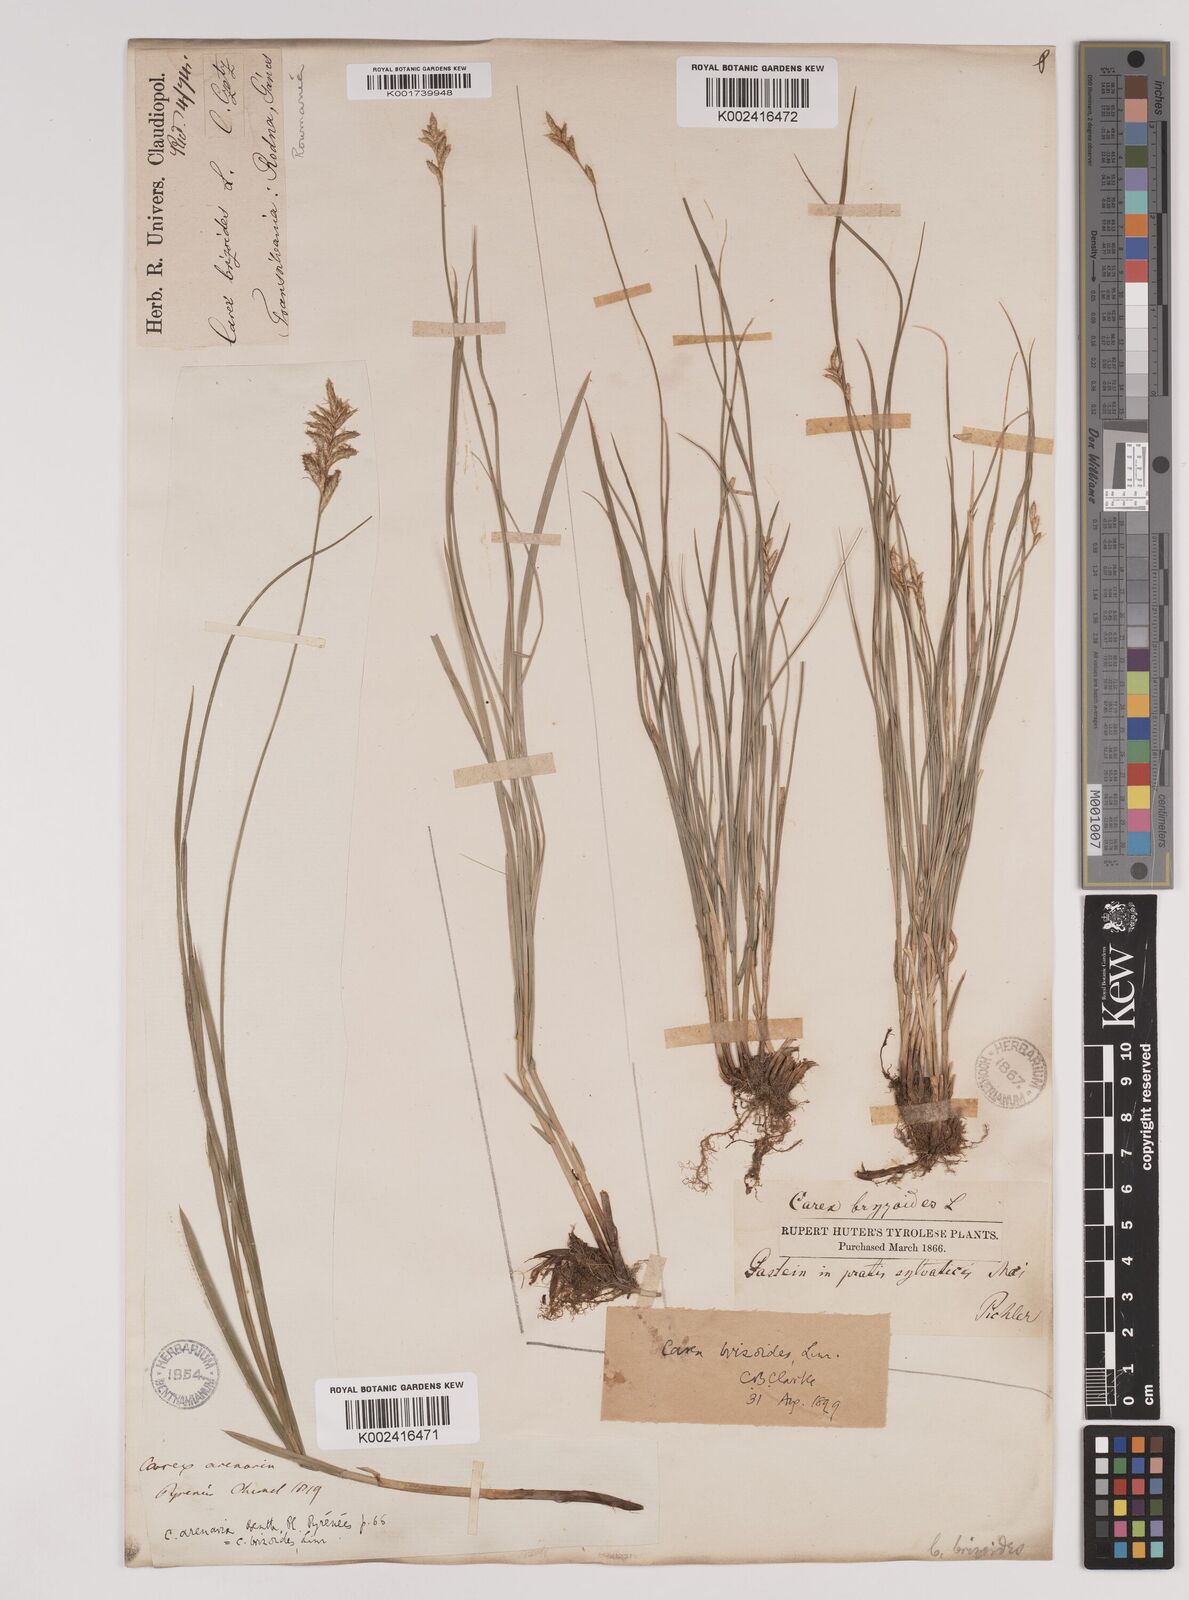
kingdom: Plantae
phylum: Tracheophyta
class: Liliopsida
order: Poales
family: Cyperaceae
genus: Carex
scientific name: Carex brizoides
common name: Quaking-grass sedge
